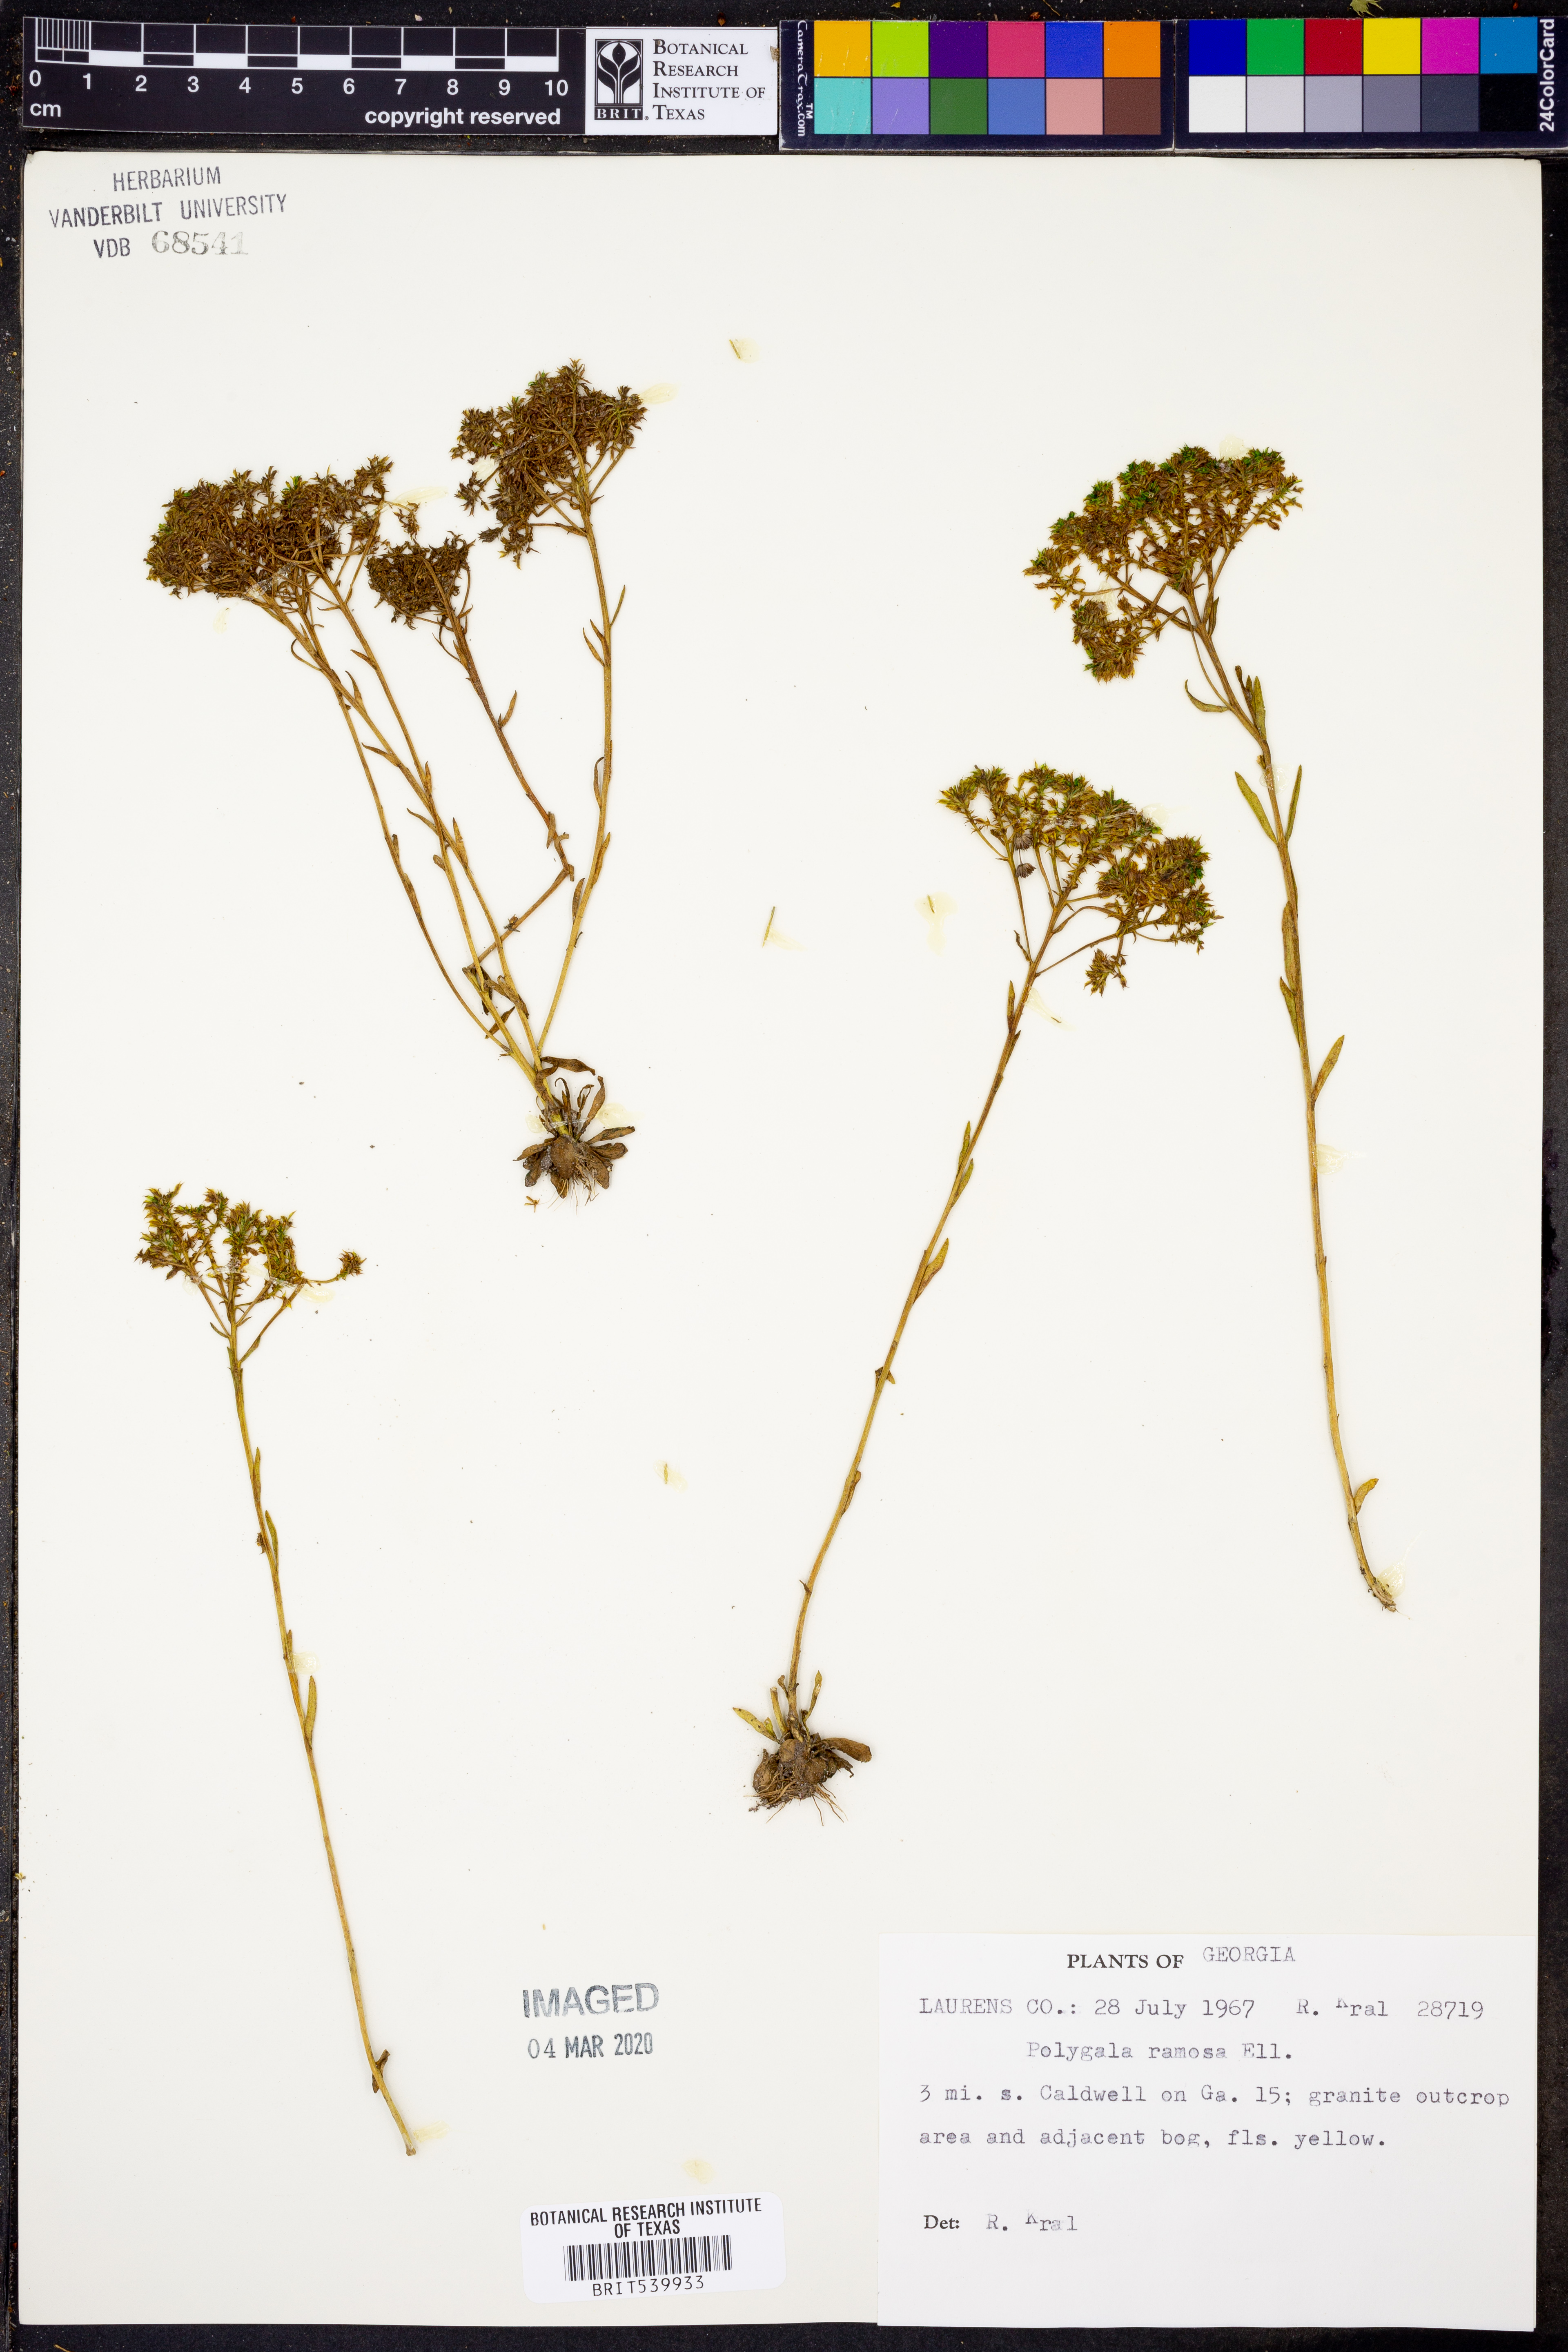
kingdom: Plantae
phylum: Tracheophyta
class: Magnoliopsida
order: Fabales
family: Polygalaceae
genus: Polygala
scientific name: Polygala ramosa
